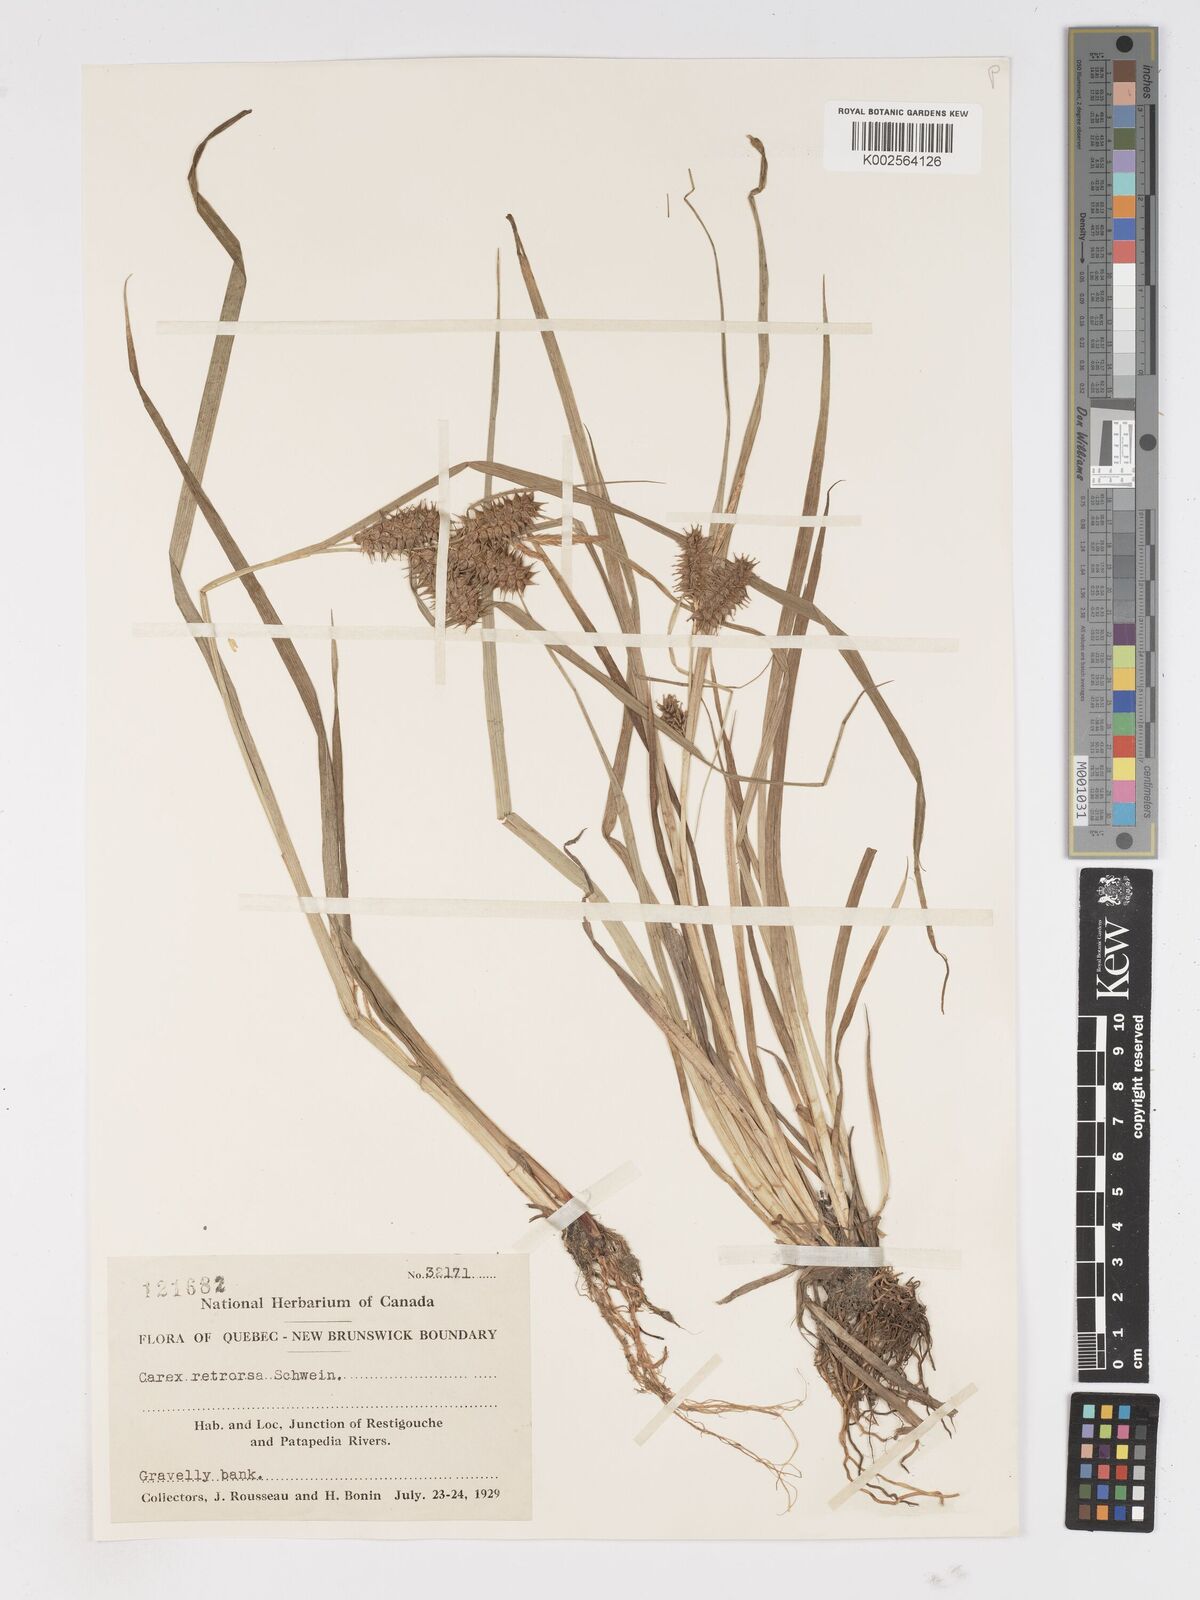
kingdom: Plantae
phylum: Tracheophyta
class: Liliopsida
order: Poales
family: Cyperaceae
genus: Carex
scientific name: Carex retrorsa
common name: Knot-sheath sedge
